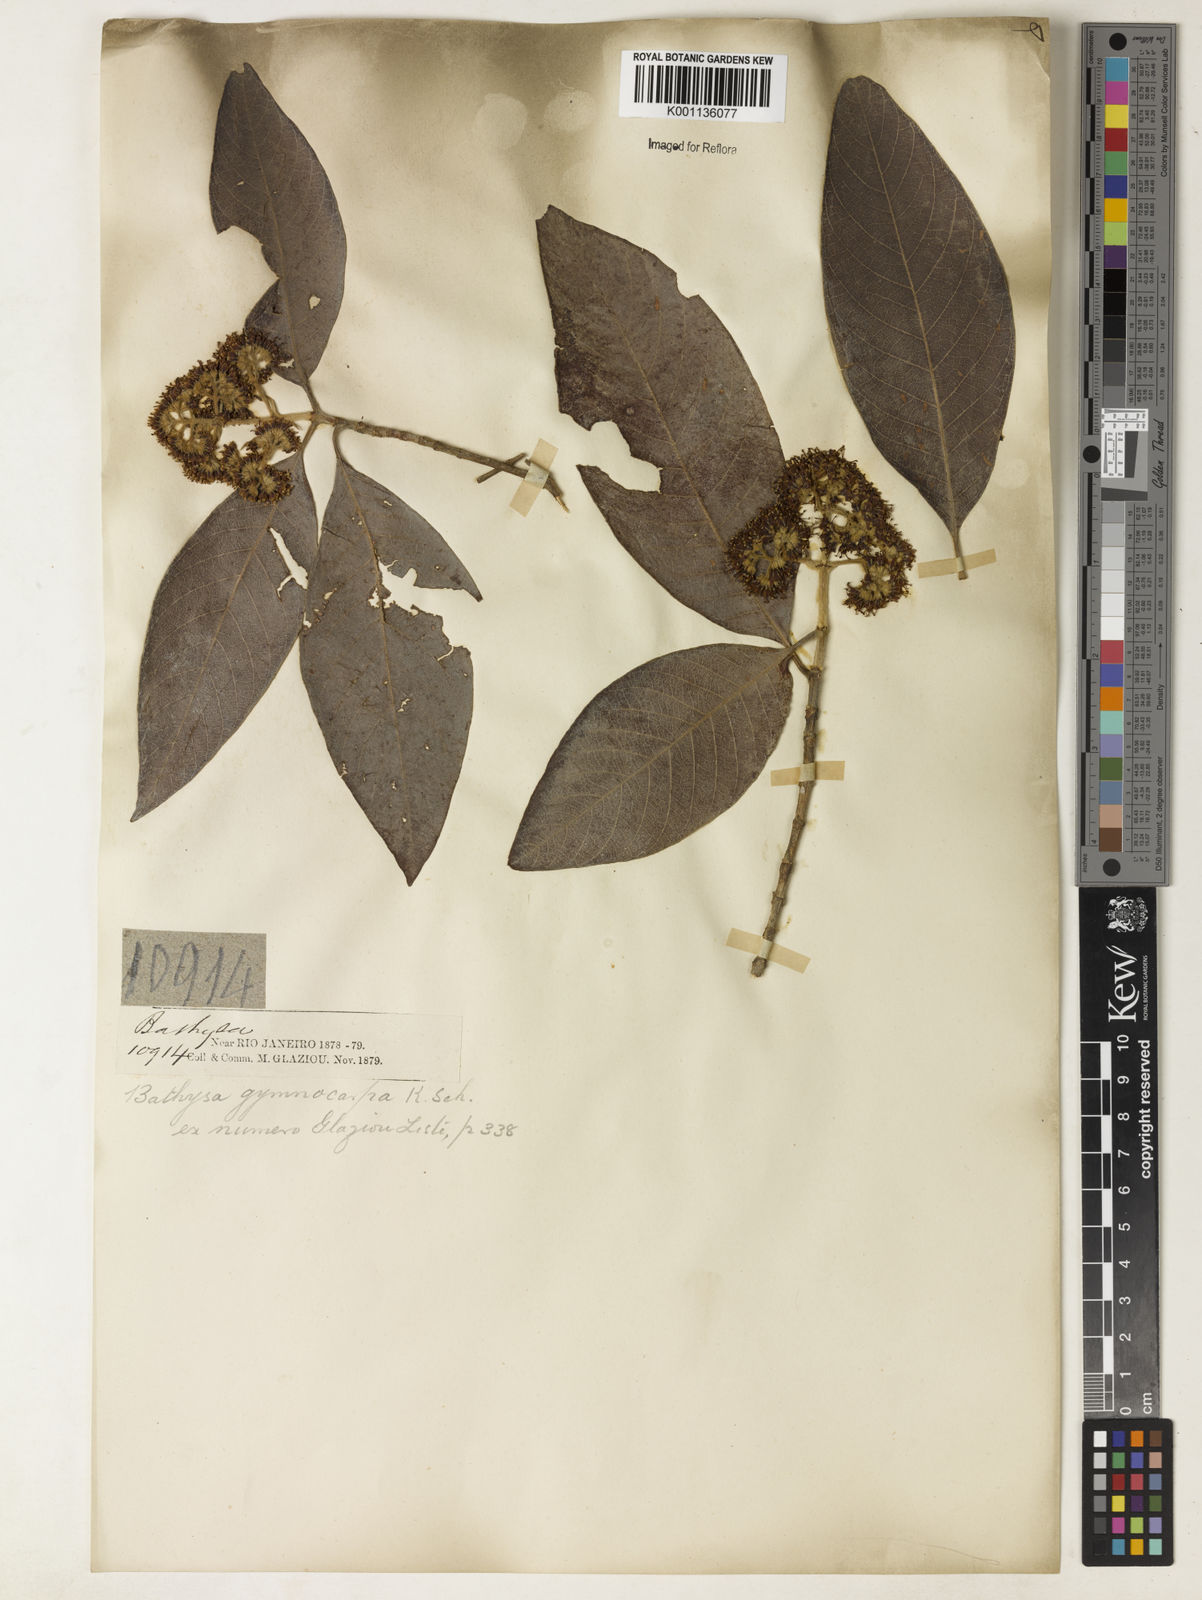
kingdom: Plantae
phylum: Tracheophyta
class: Magnoliopsida
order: Gentianales
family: Rubiaceae
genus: Bathysa
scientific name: Bathysa gymnocarpa
